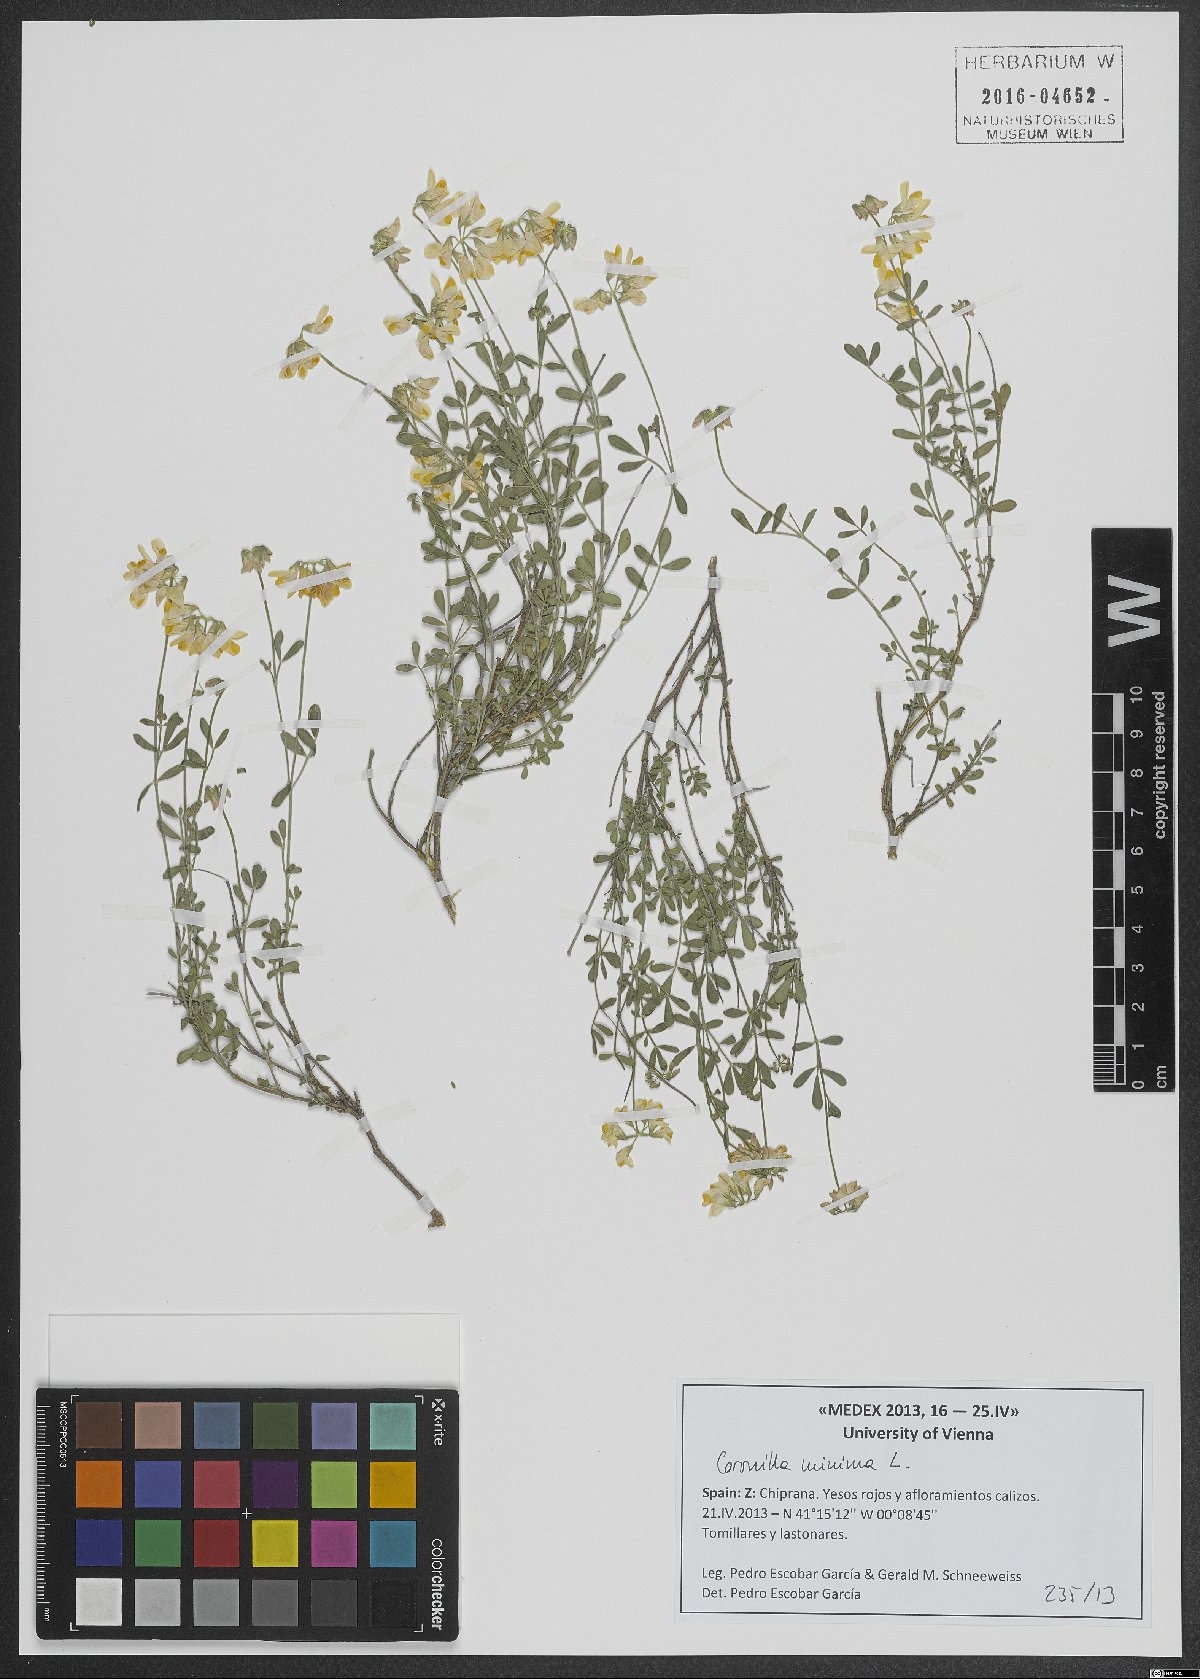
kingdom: Plantae
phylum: Tracheophyta
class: Magnoliopsida
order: Fabales
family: Fabaceae
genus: Coronilla
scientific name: Coronilla minima
